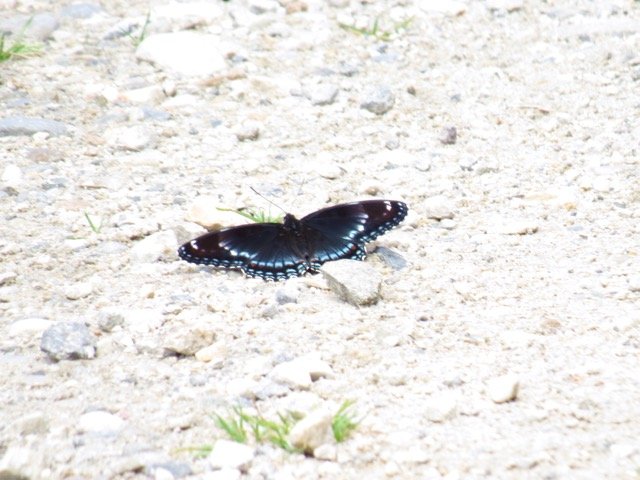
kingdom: Animalia
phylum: Arthropoda
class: Insecta
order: Lepidoptera
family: Nymphalidae
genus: Limenitis
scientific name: Limenitis
